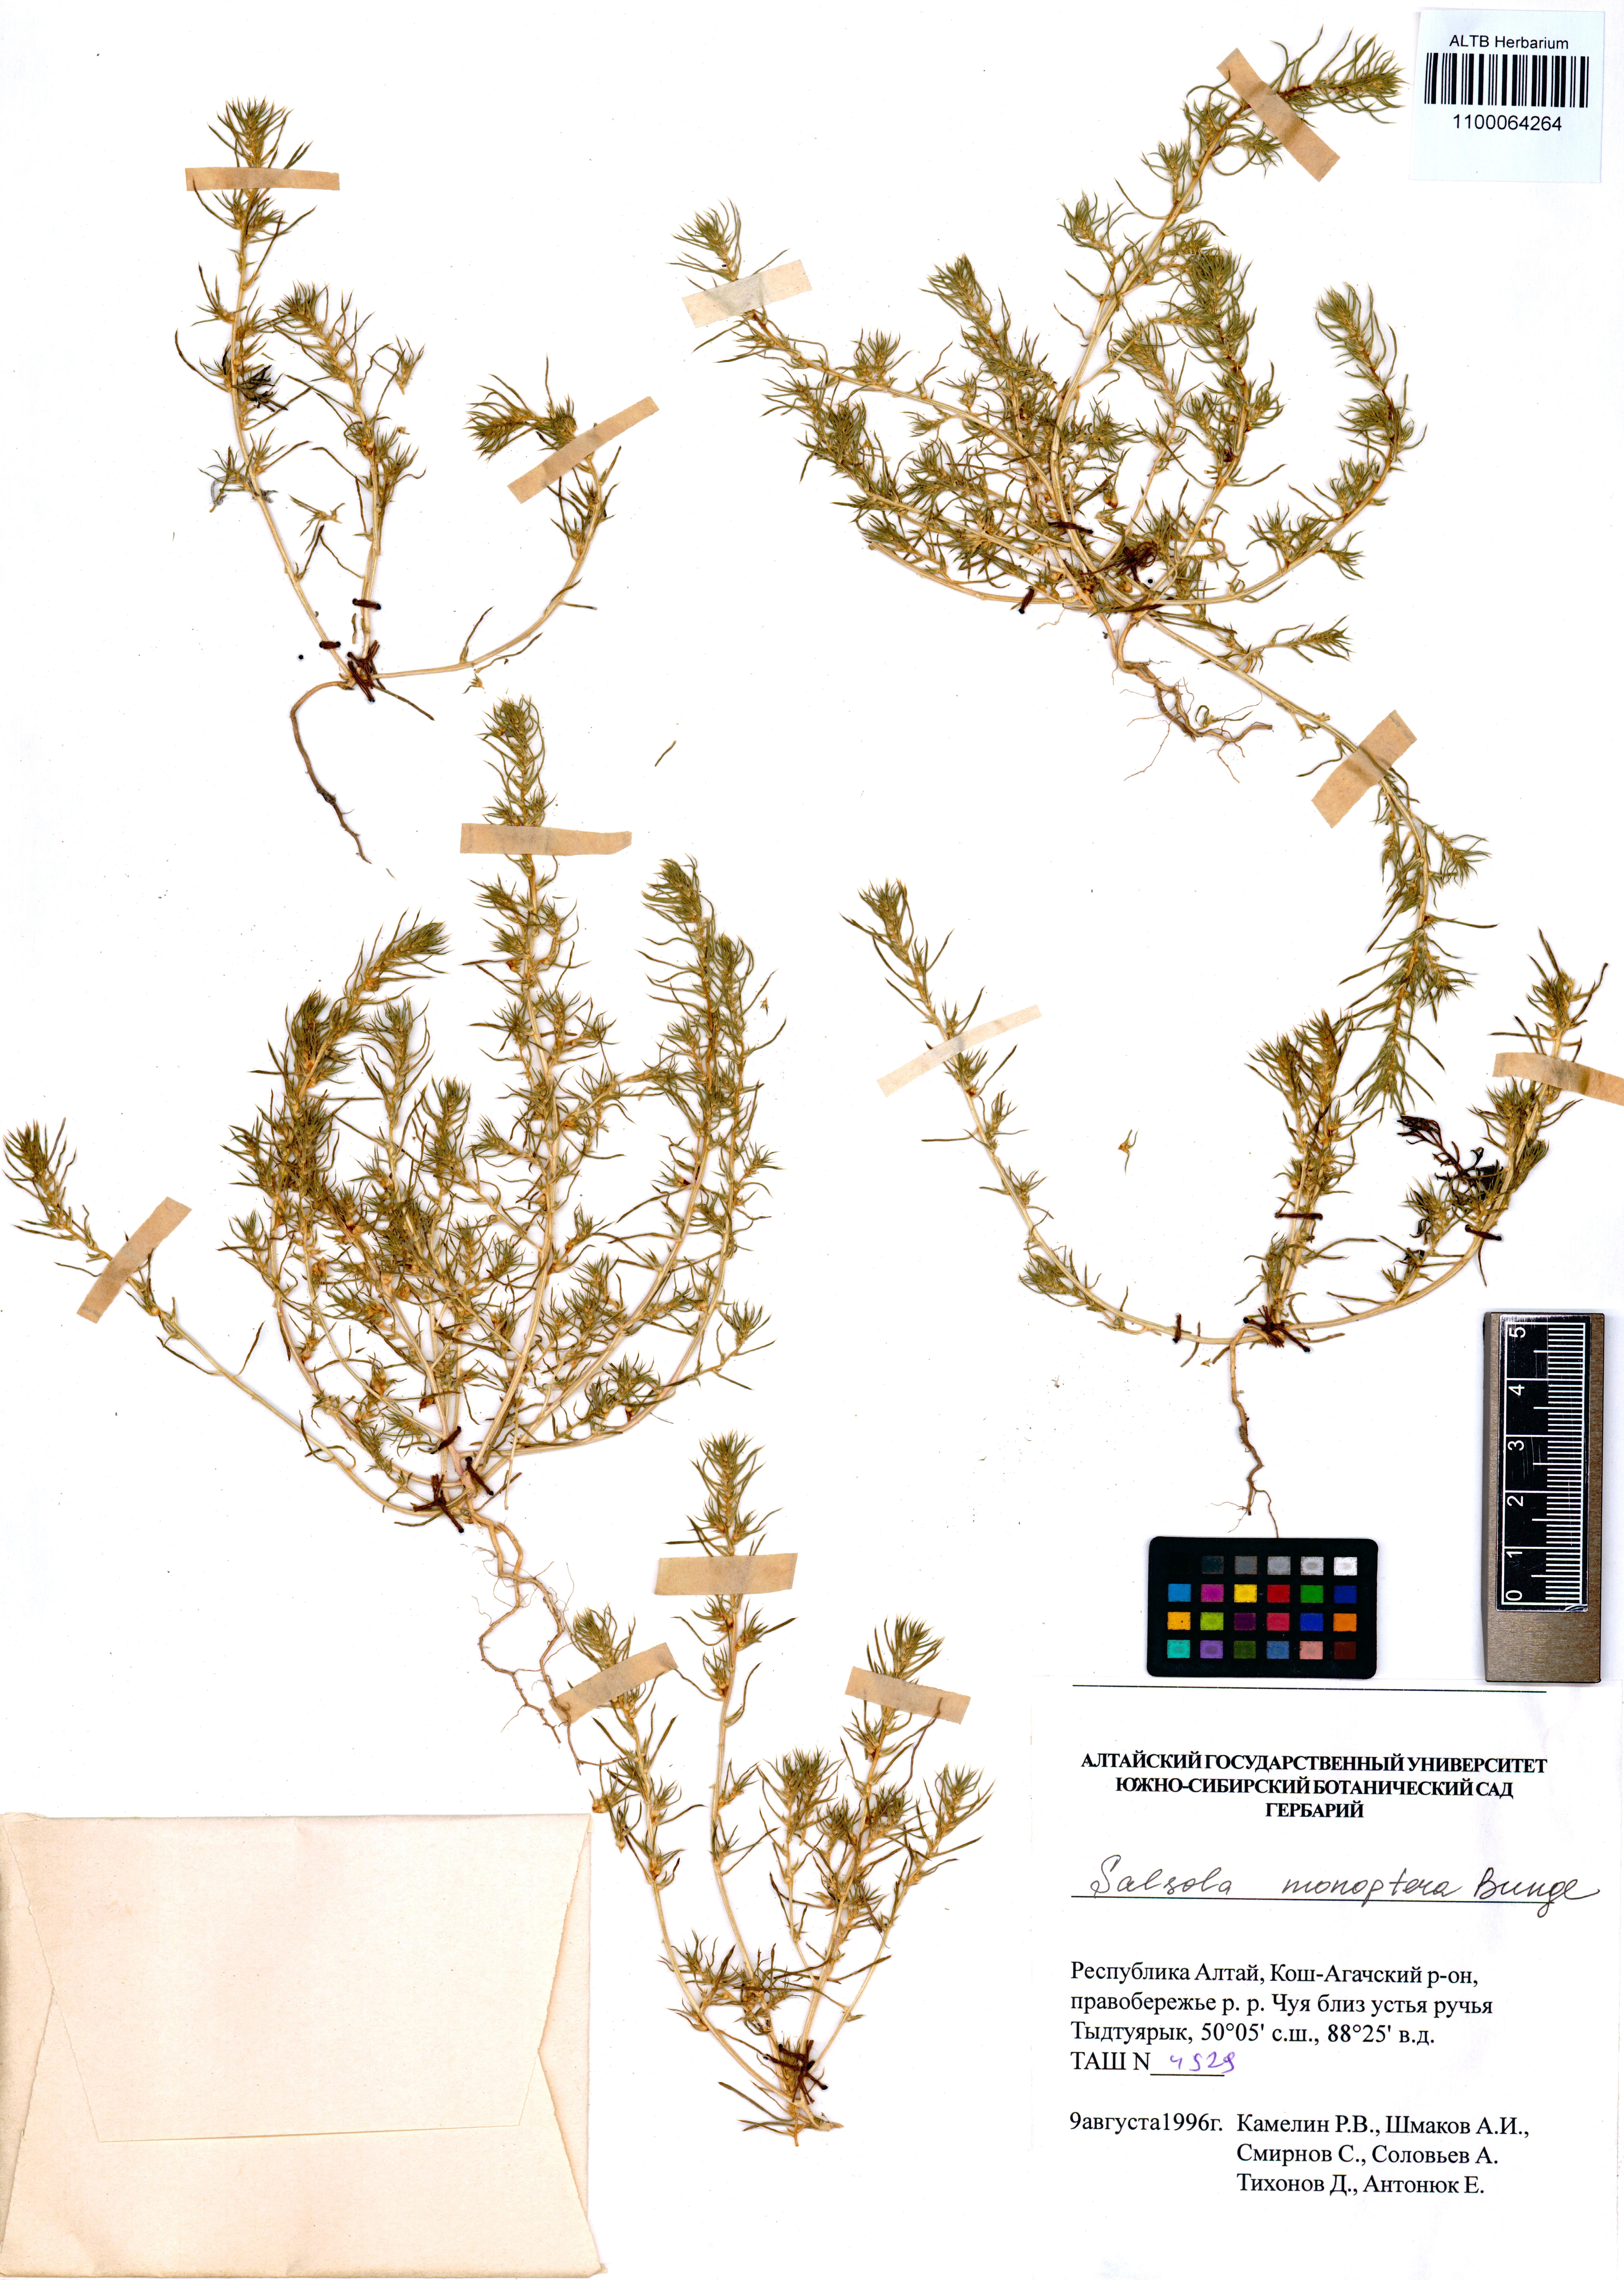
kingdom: Plantae
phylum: Tracheophyta
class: Magnoliopsida
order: Caryophyllales
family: Amaranthaceae
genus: Salsola
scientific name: Salsola monoptera
